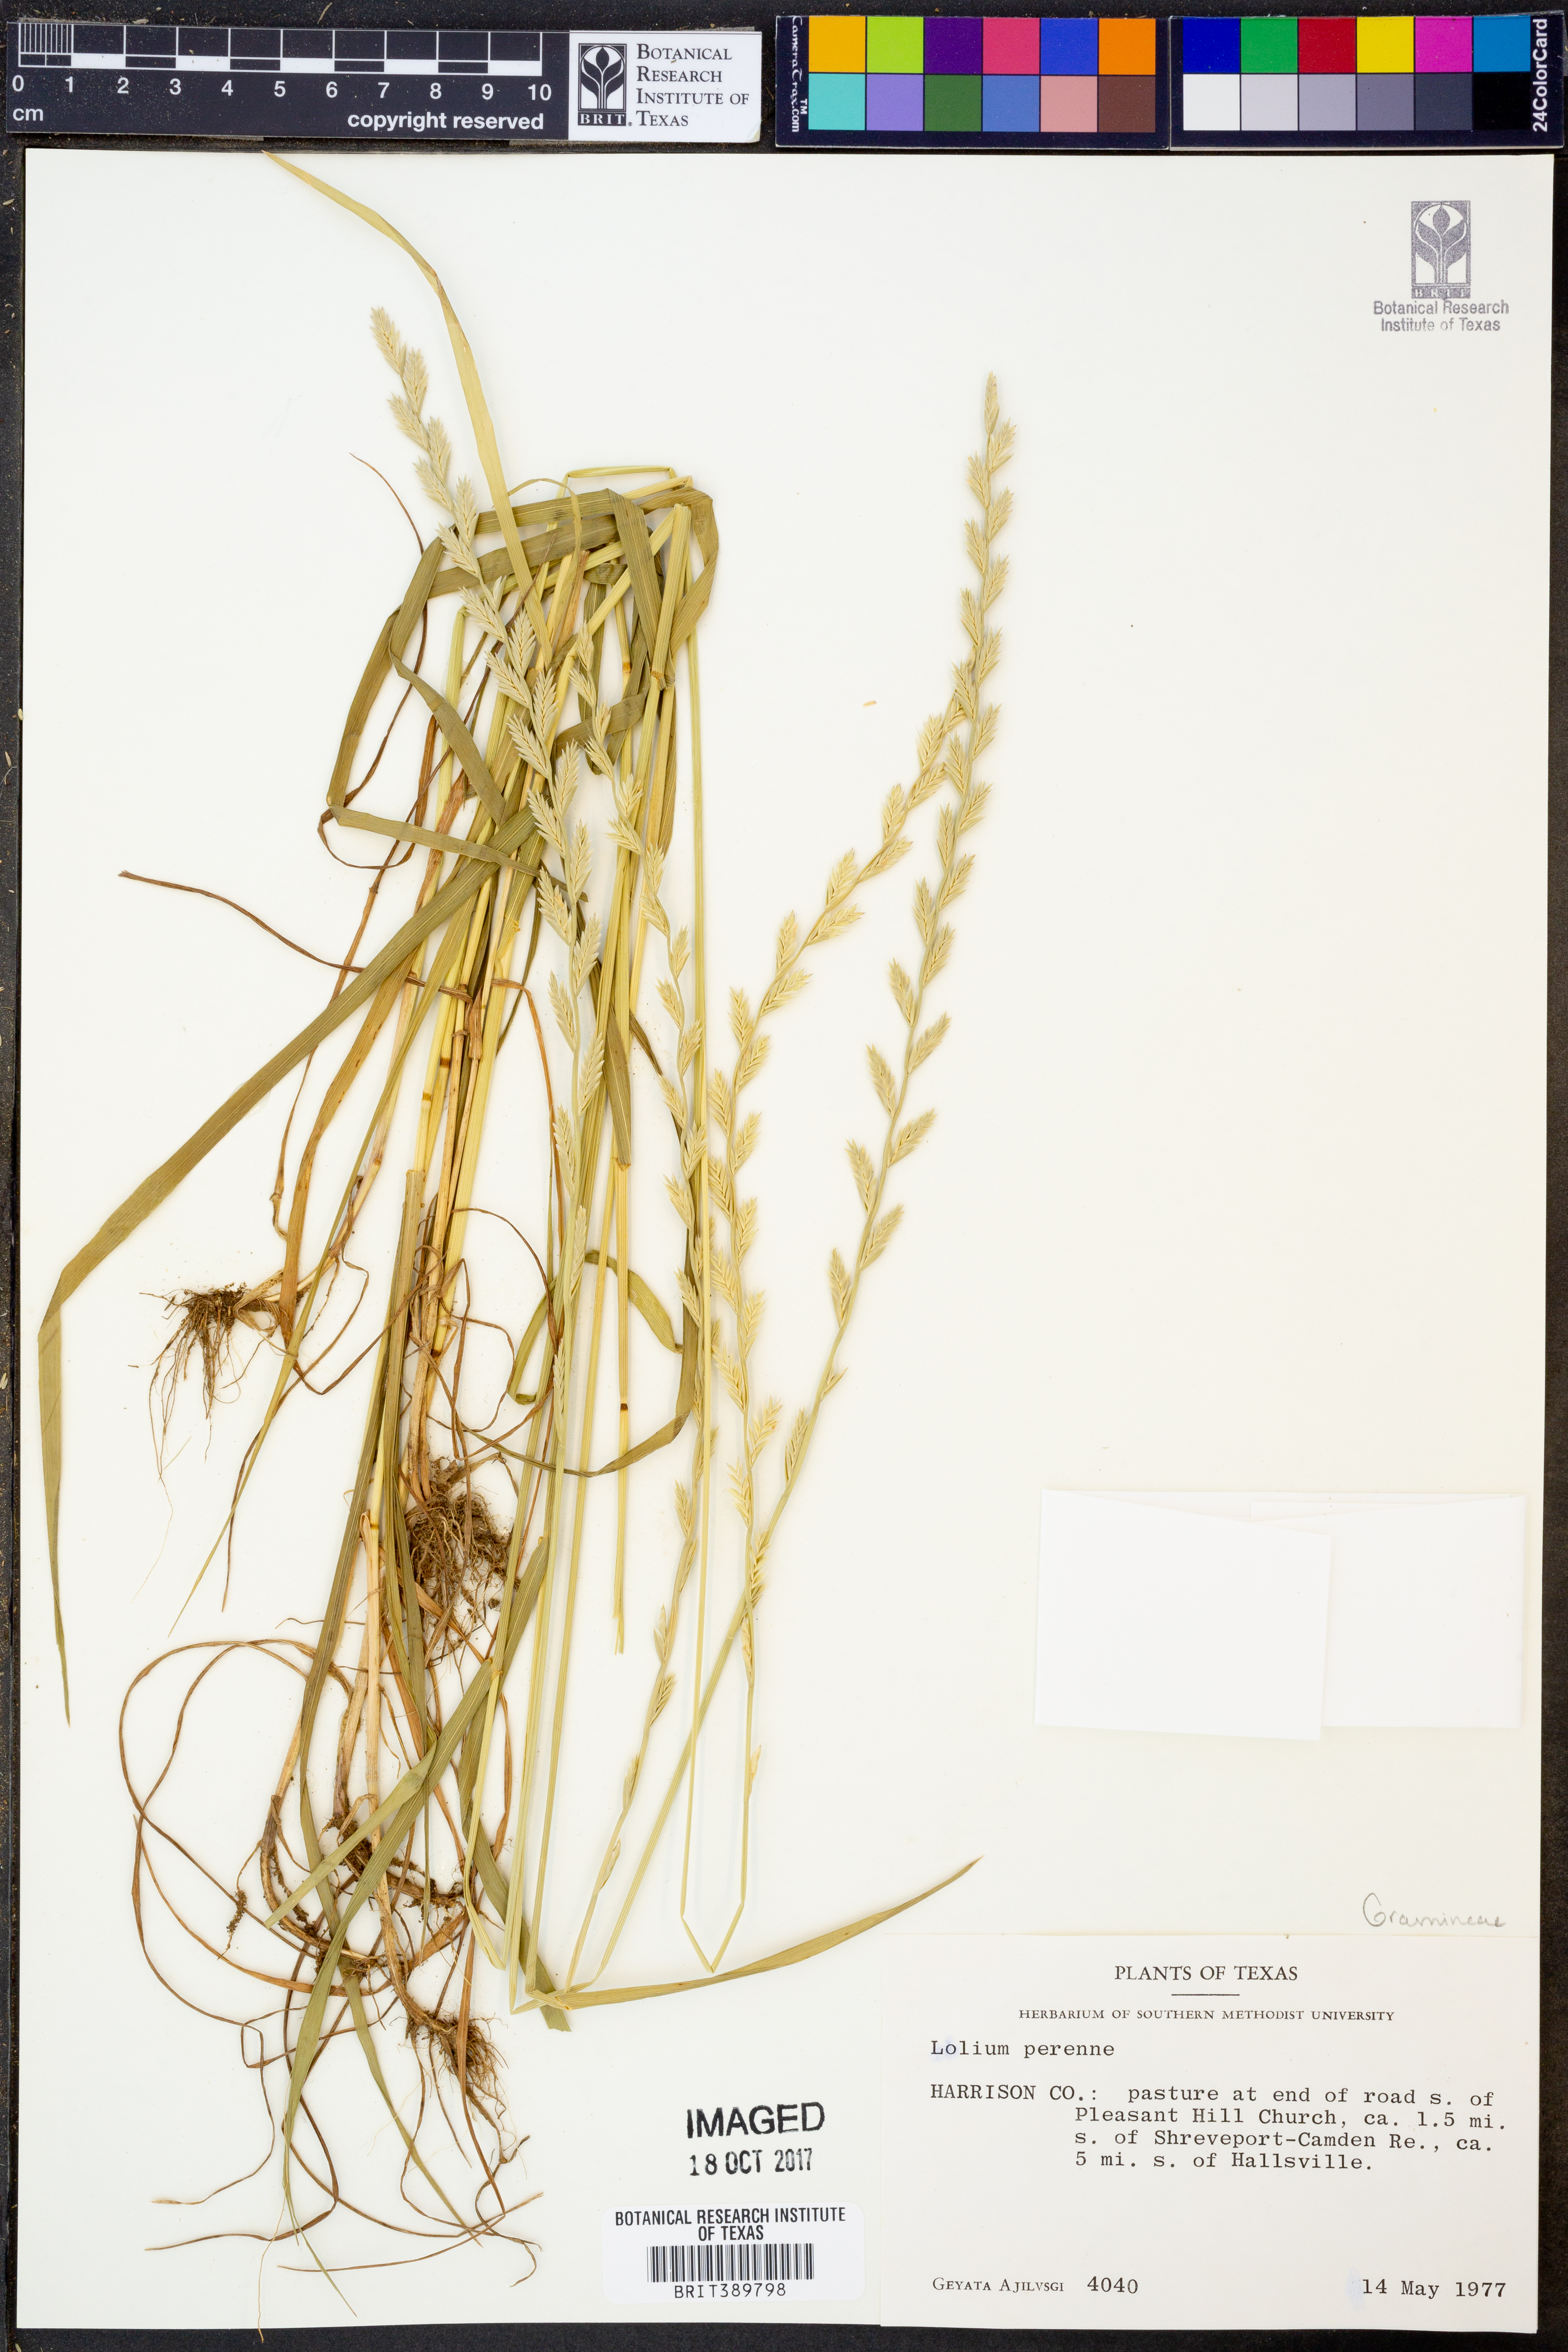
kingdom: Plantae
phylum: Tracheophyta
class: Liliopsida
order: Poales
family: Poaceae
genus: Lolium
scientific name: Lolium perenne
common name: Perennial ryegrass
